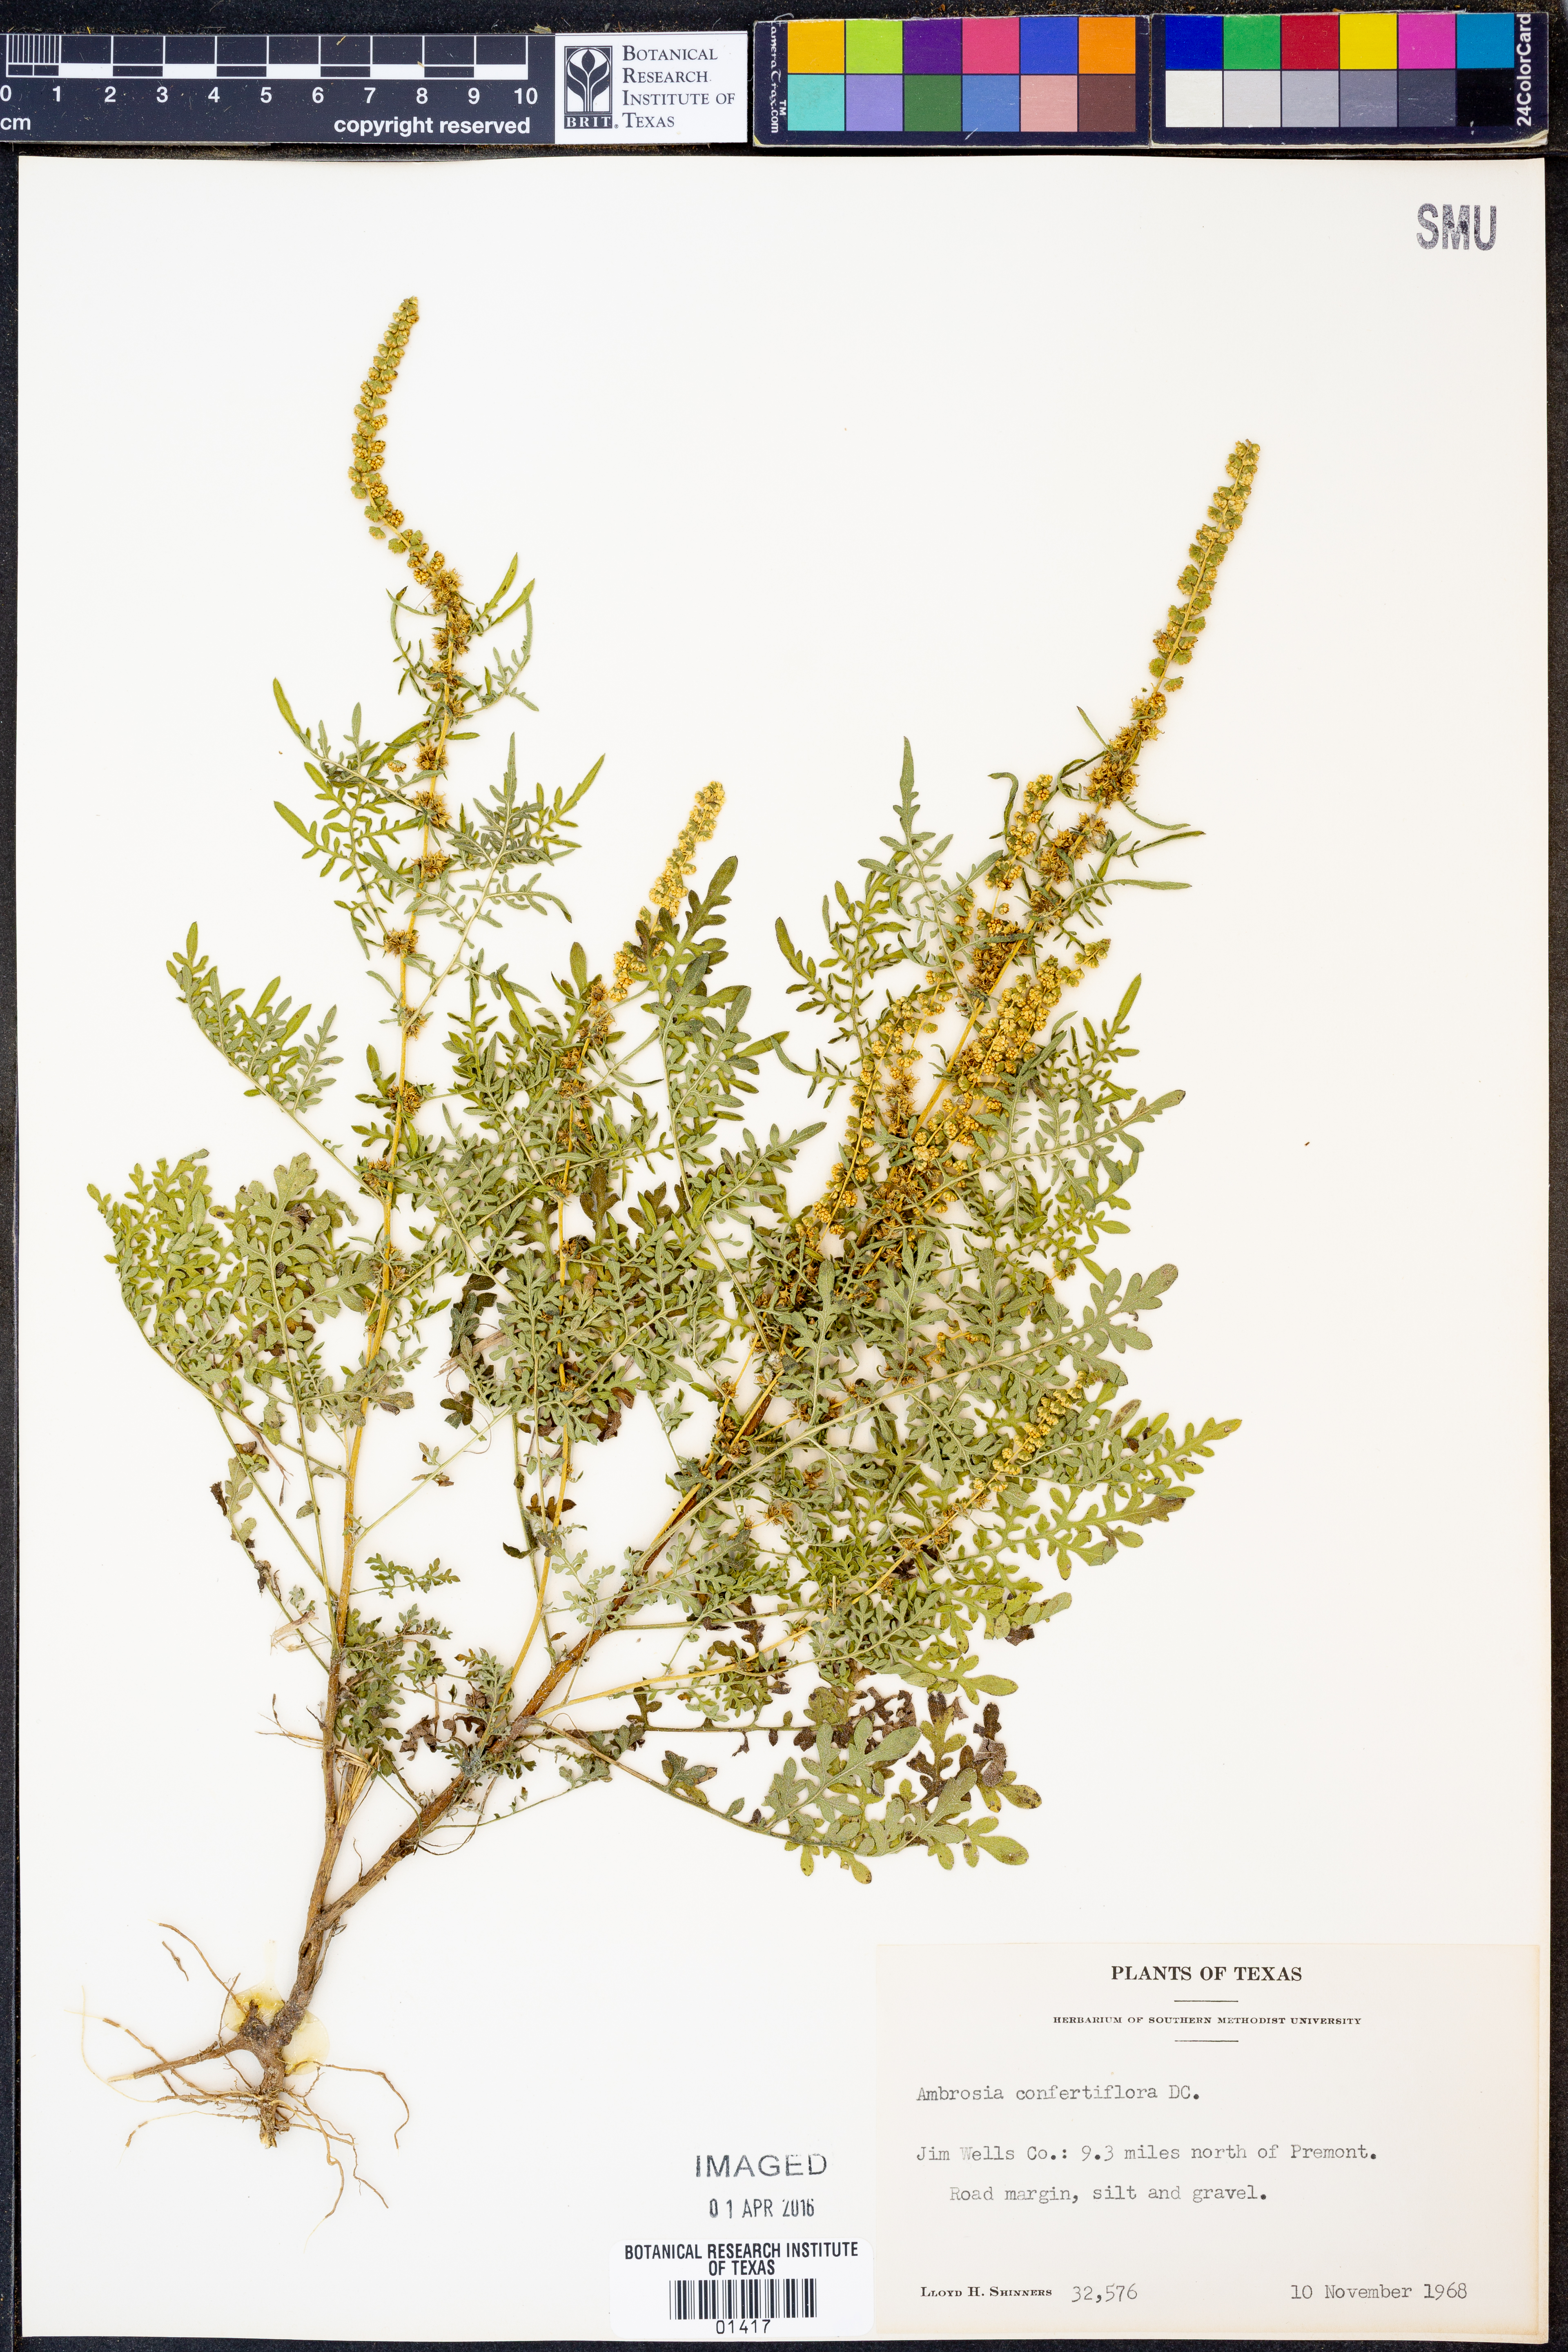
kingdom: Plantae
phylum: Tracheophyta
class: Magnoliopsida
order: Asterales
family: Asteraceae
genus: Ambrosia
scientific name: Ambrosia confertiflora
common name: Bur ragweed
